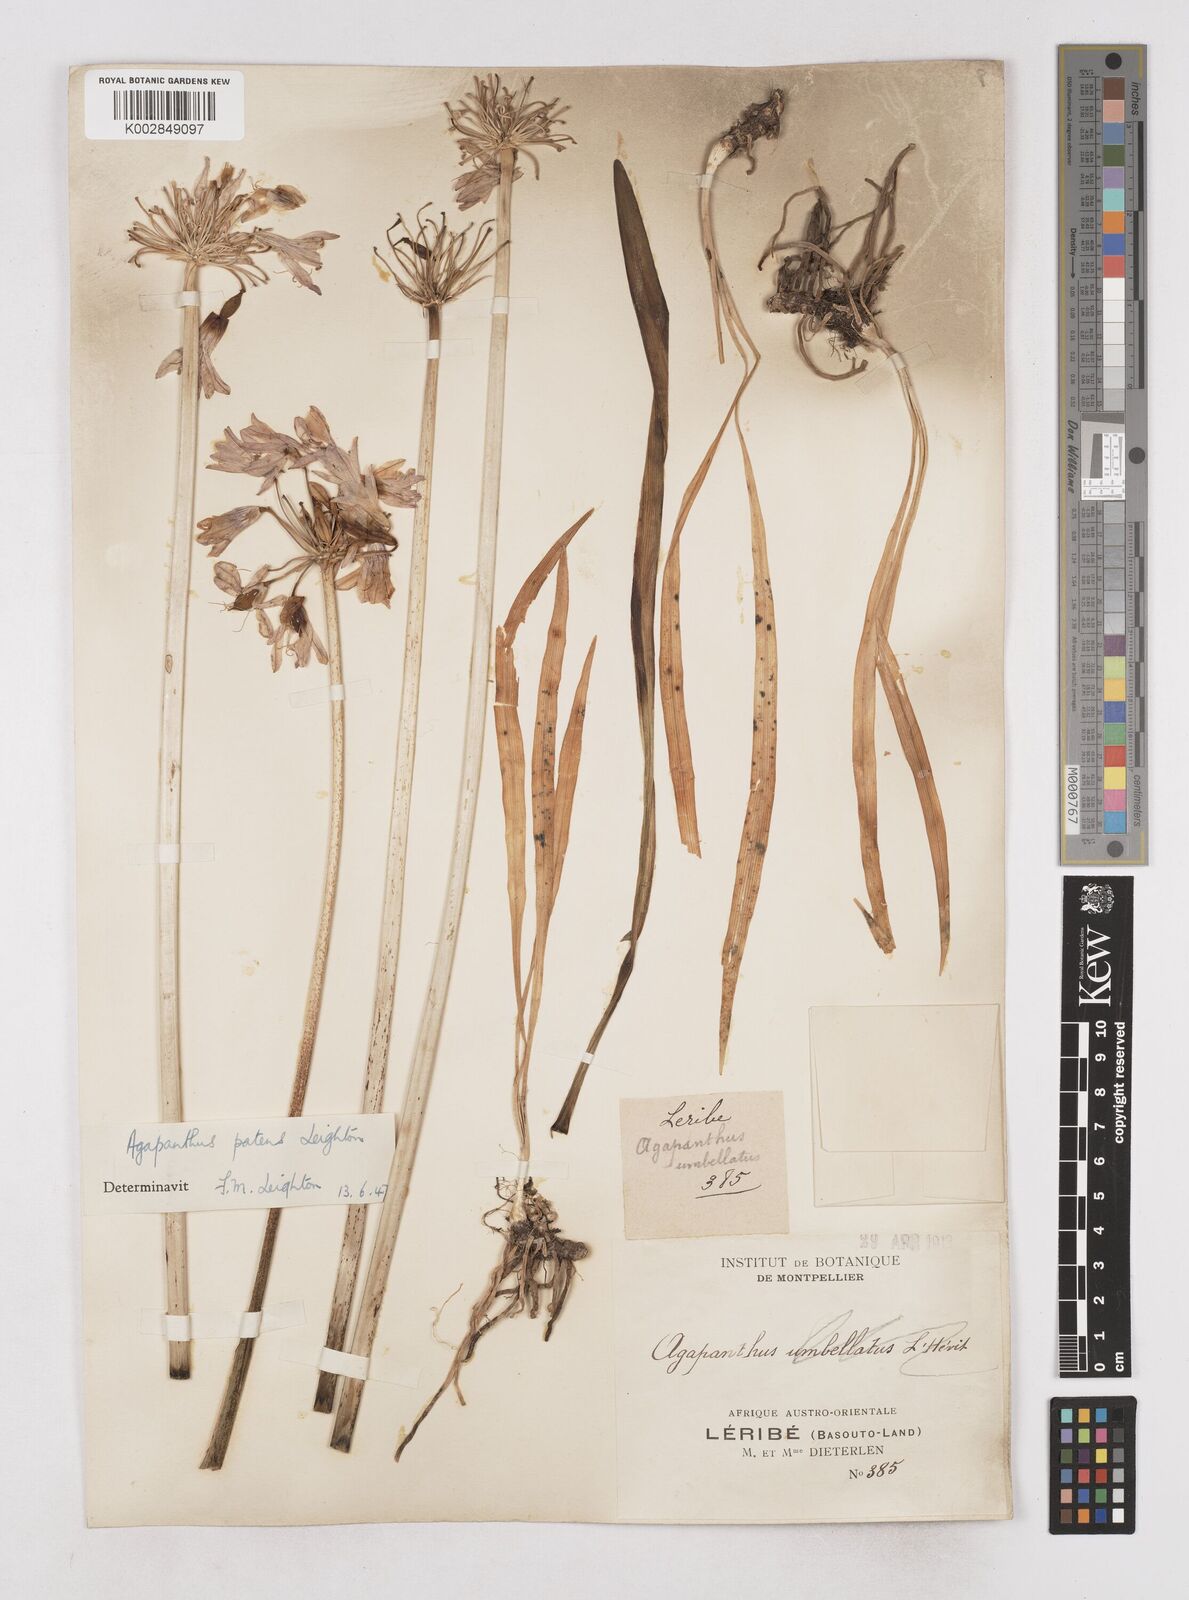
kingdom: Plantae
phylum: Tracheophyta
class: Liliopsida
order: Asparagales
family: Amaryllidaceae
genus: Agapanthus
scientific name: Agapanthus campanulatus
